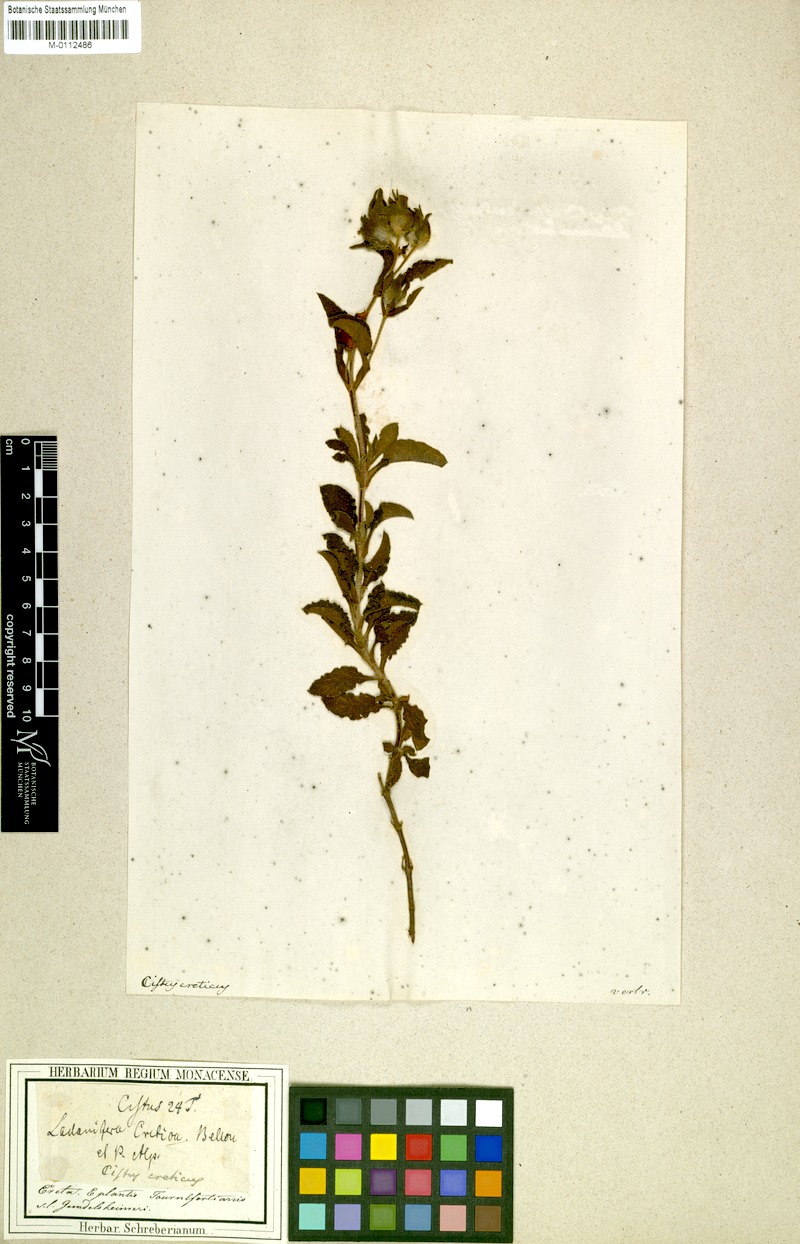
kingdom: Plantae
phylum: Tracheophyta
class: Magnoliopsida
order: Malvales
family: Cistaceae
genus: Cistus
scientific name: Cistus creticus
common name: Cretan rockrose
